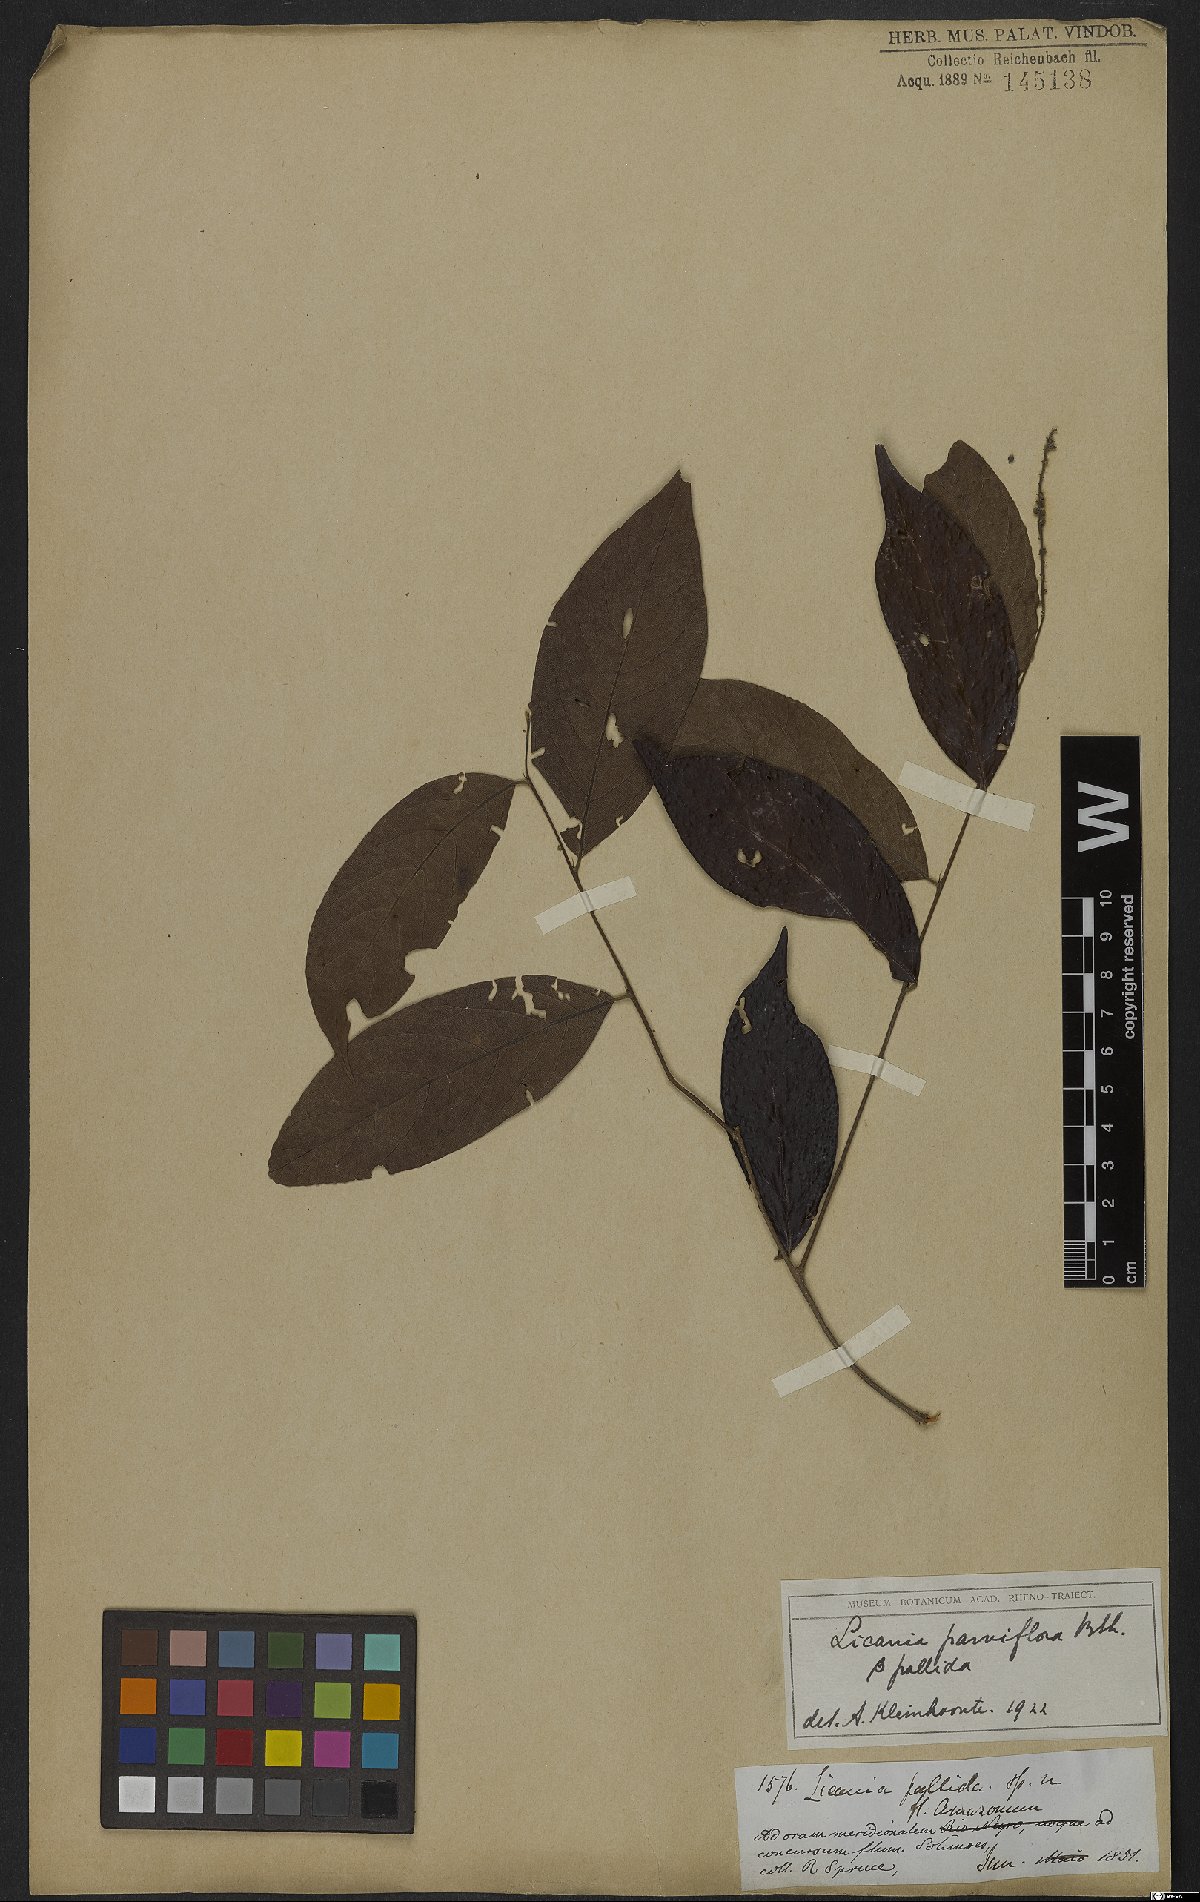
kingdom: Plantae
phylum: Tracheophyta
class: Magnoliopsida
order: Malpighiales
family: Chrysobalanaceae
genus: Leptobalanus
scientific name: Leptobalanus parviflorus
